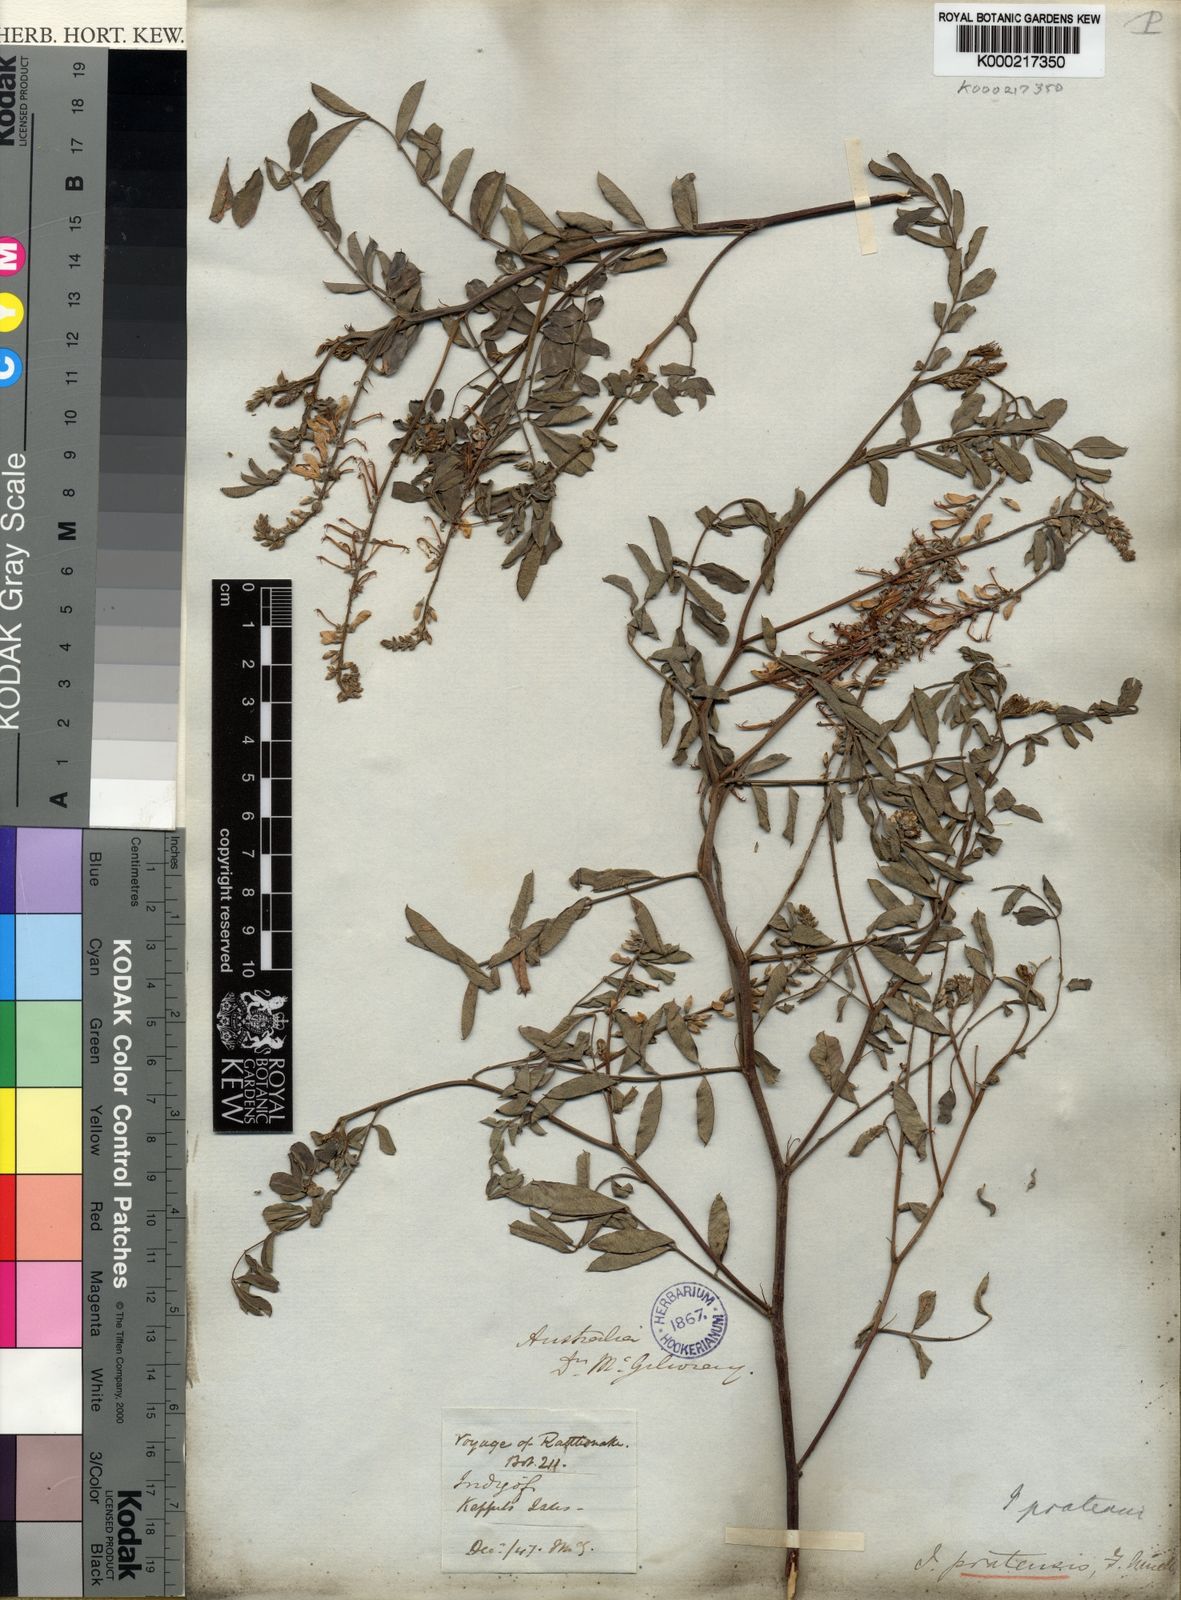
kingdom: Plantae
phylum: Tracheophyta
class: Magnoliopsida
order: Fabales
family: Fabaceae
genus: Indigofera
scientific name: Indigofera pratensis
